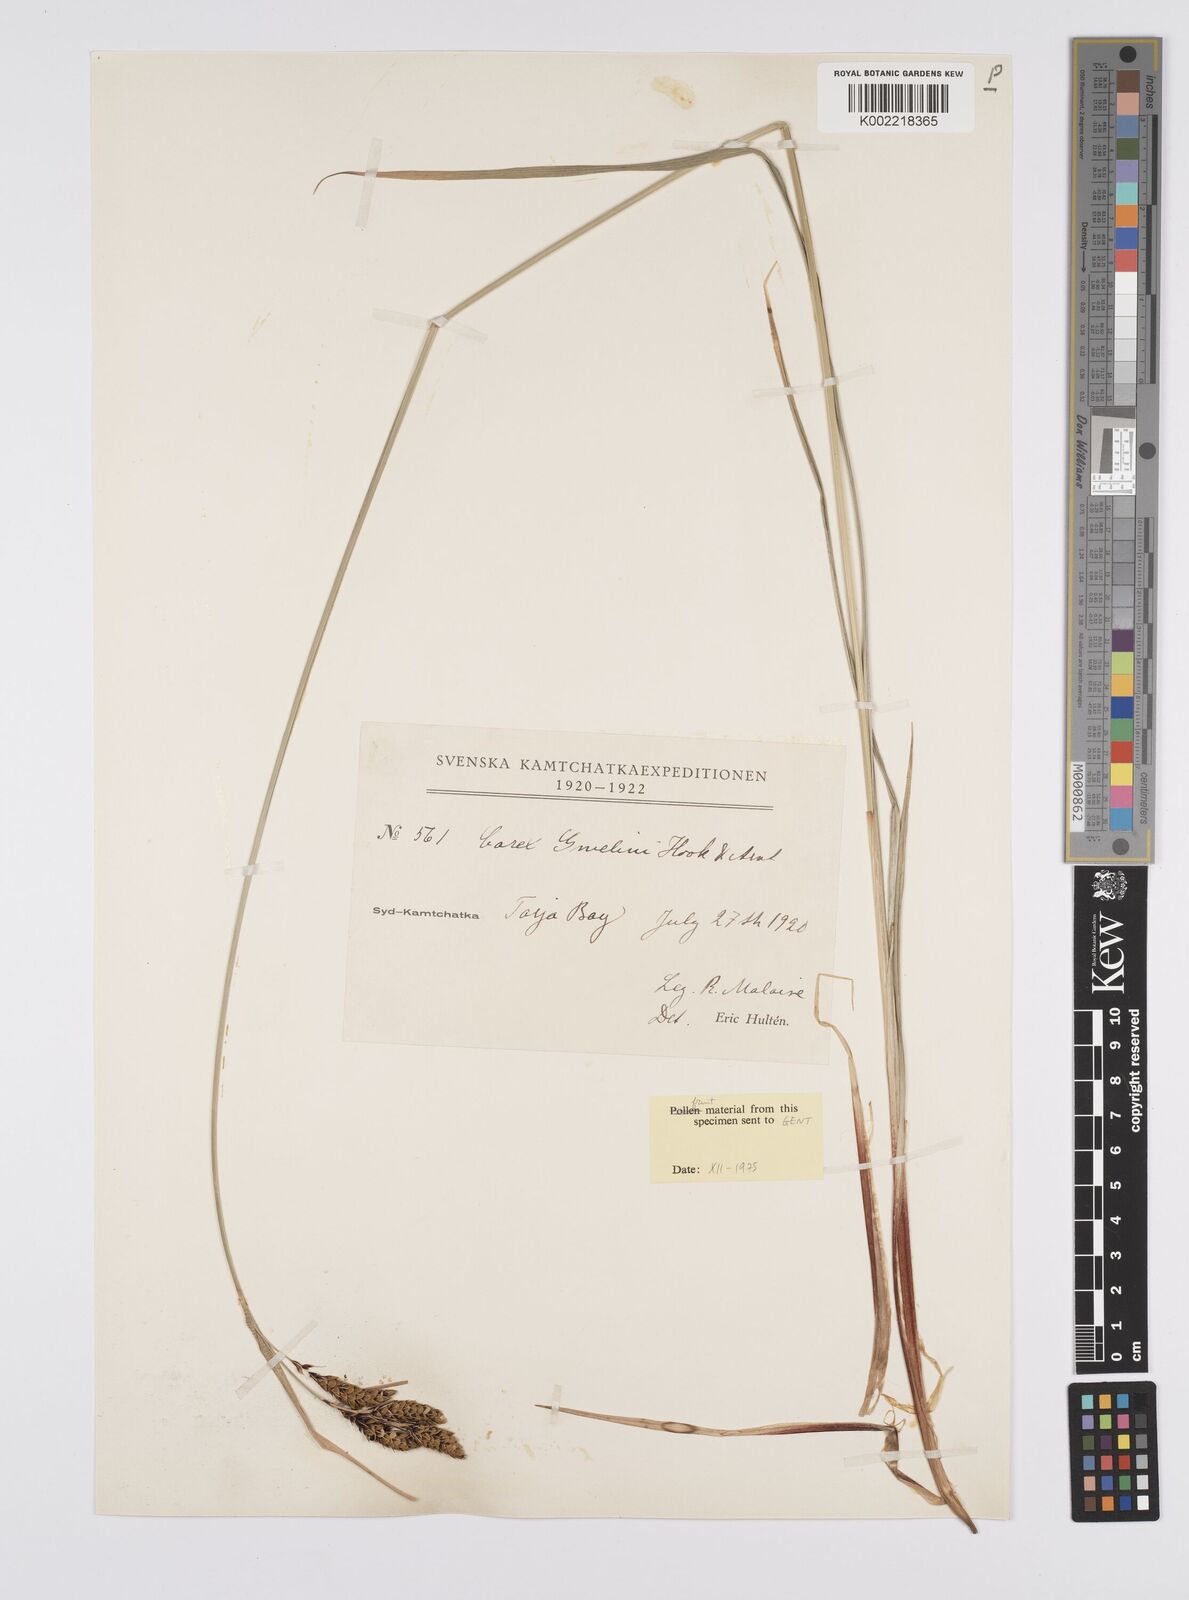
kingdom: Plantae
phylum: Tracheophyta
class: Liliopsida
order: Poales
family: Cyperaceae
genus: Carex
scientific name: Carex gmelinii
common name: Gmelin's sedge
